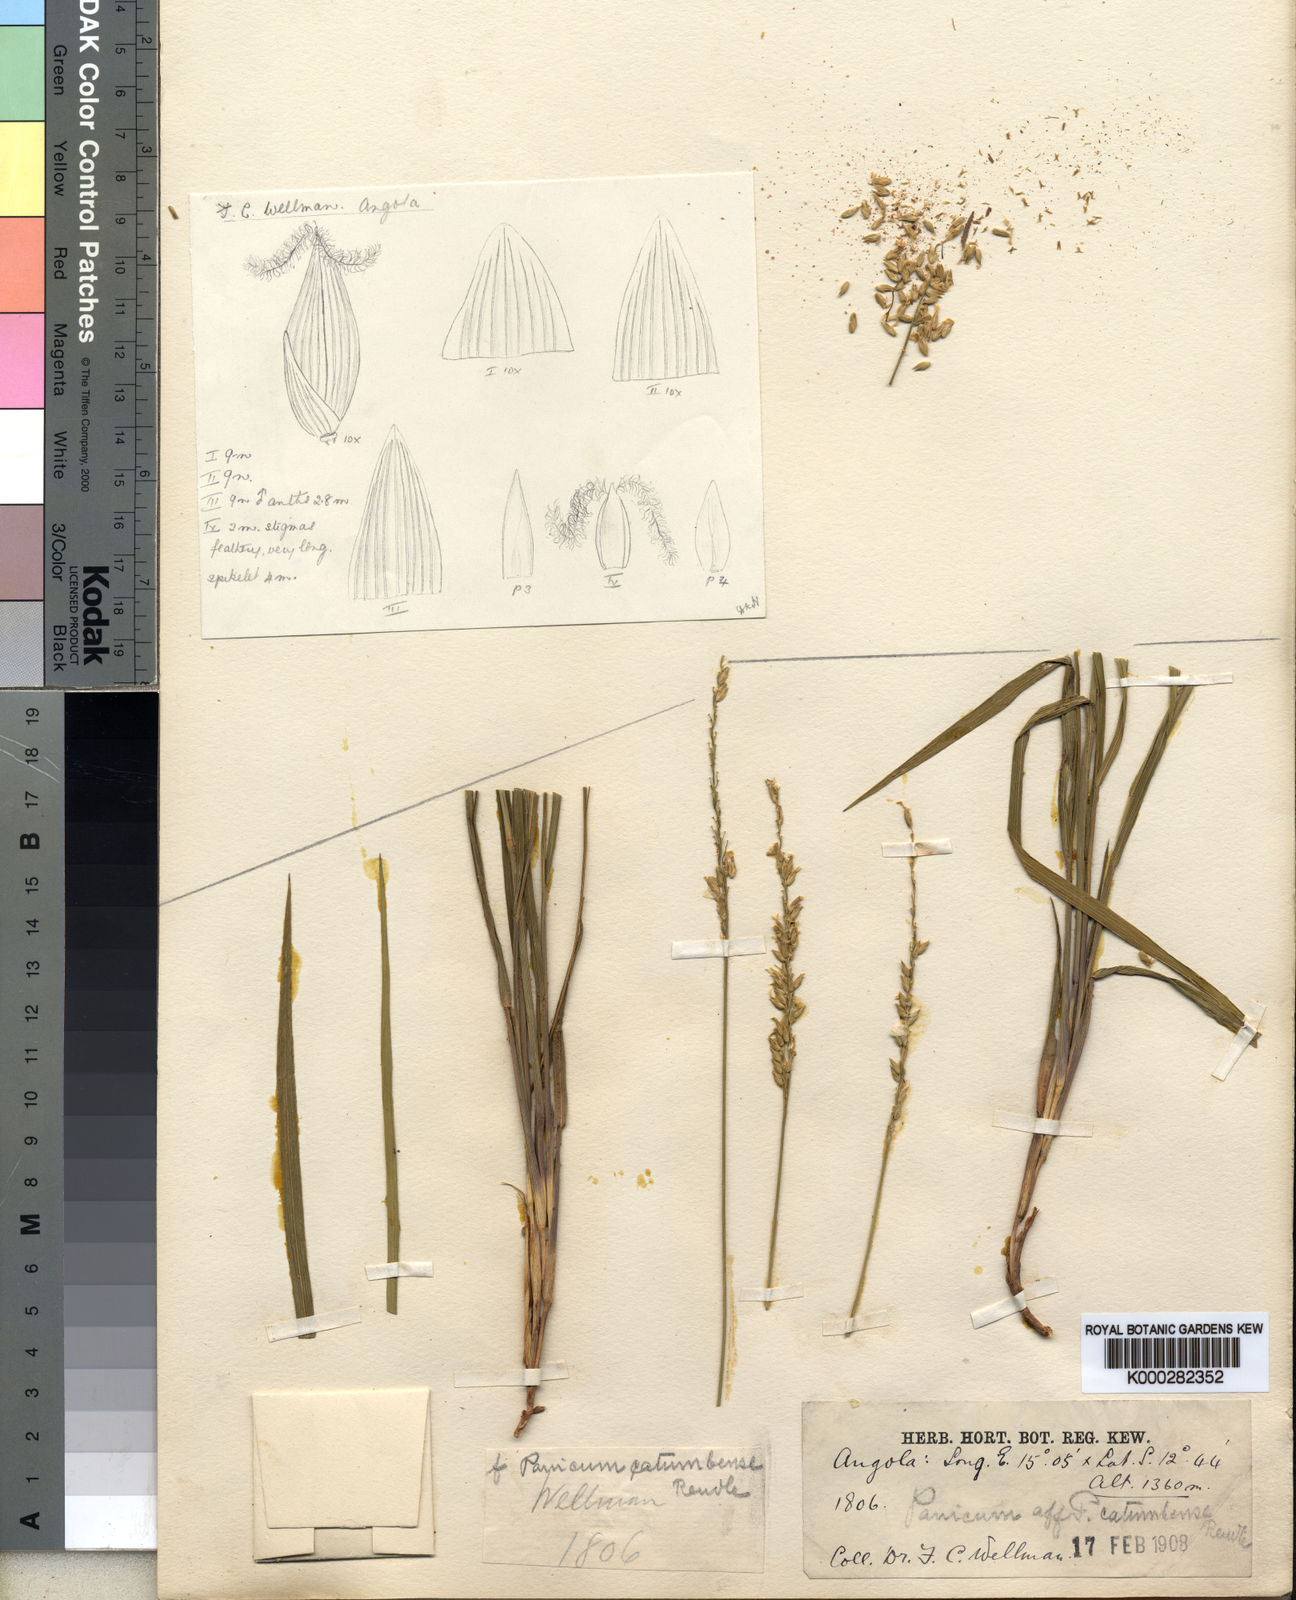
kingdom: Plantae
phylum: Tracheophyta
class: Liliopsida
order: Poales
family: Poaceae
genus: Sacciolepis
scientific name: Sacciolepis catumbensis
